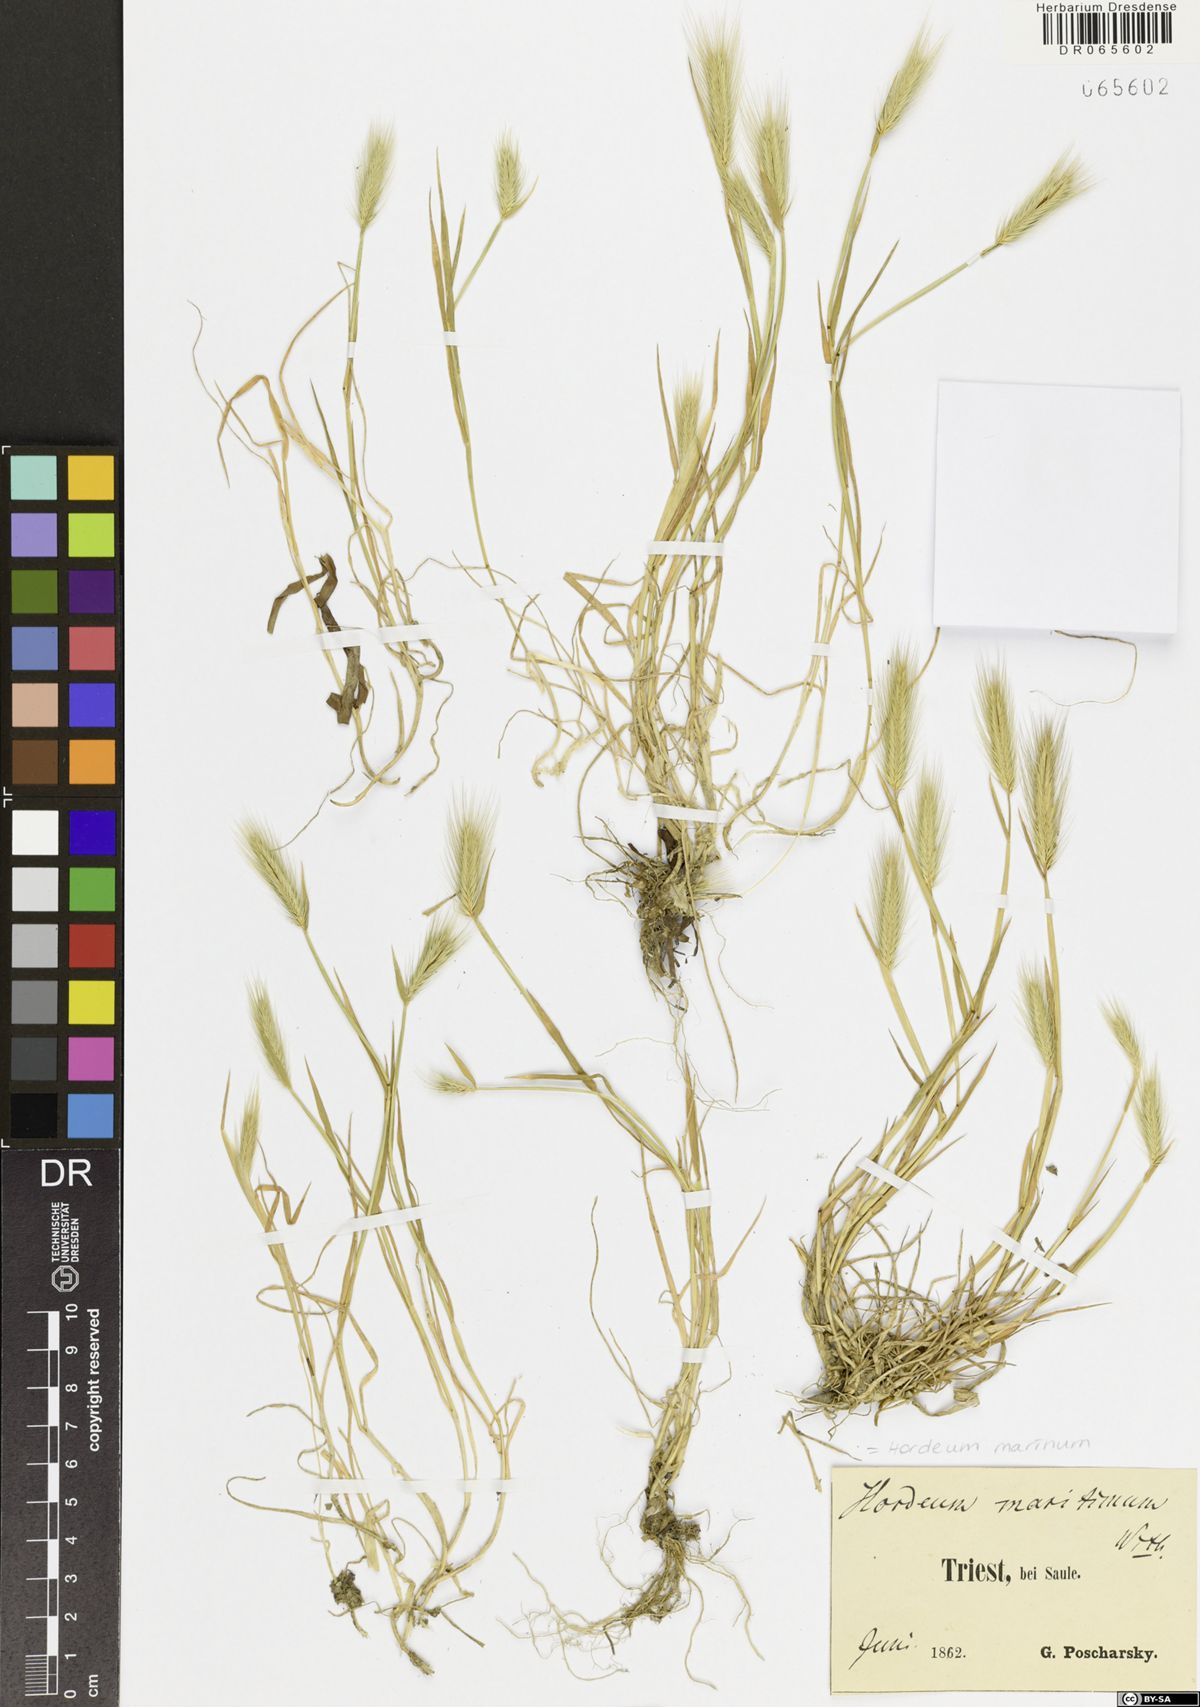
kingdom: Plantae
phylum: Tracheophyta
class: Liliopsida
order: Poales
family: Poaceae
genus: Hordeum
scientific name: Hordeum marinum
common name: Sea barley
